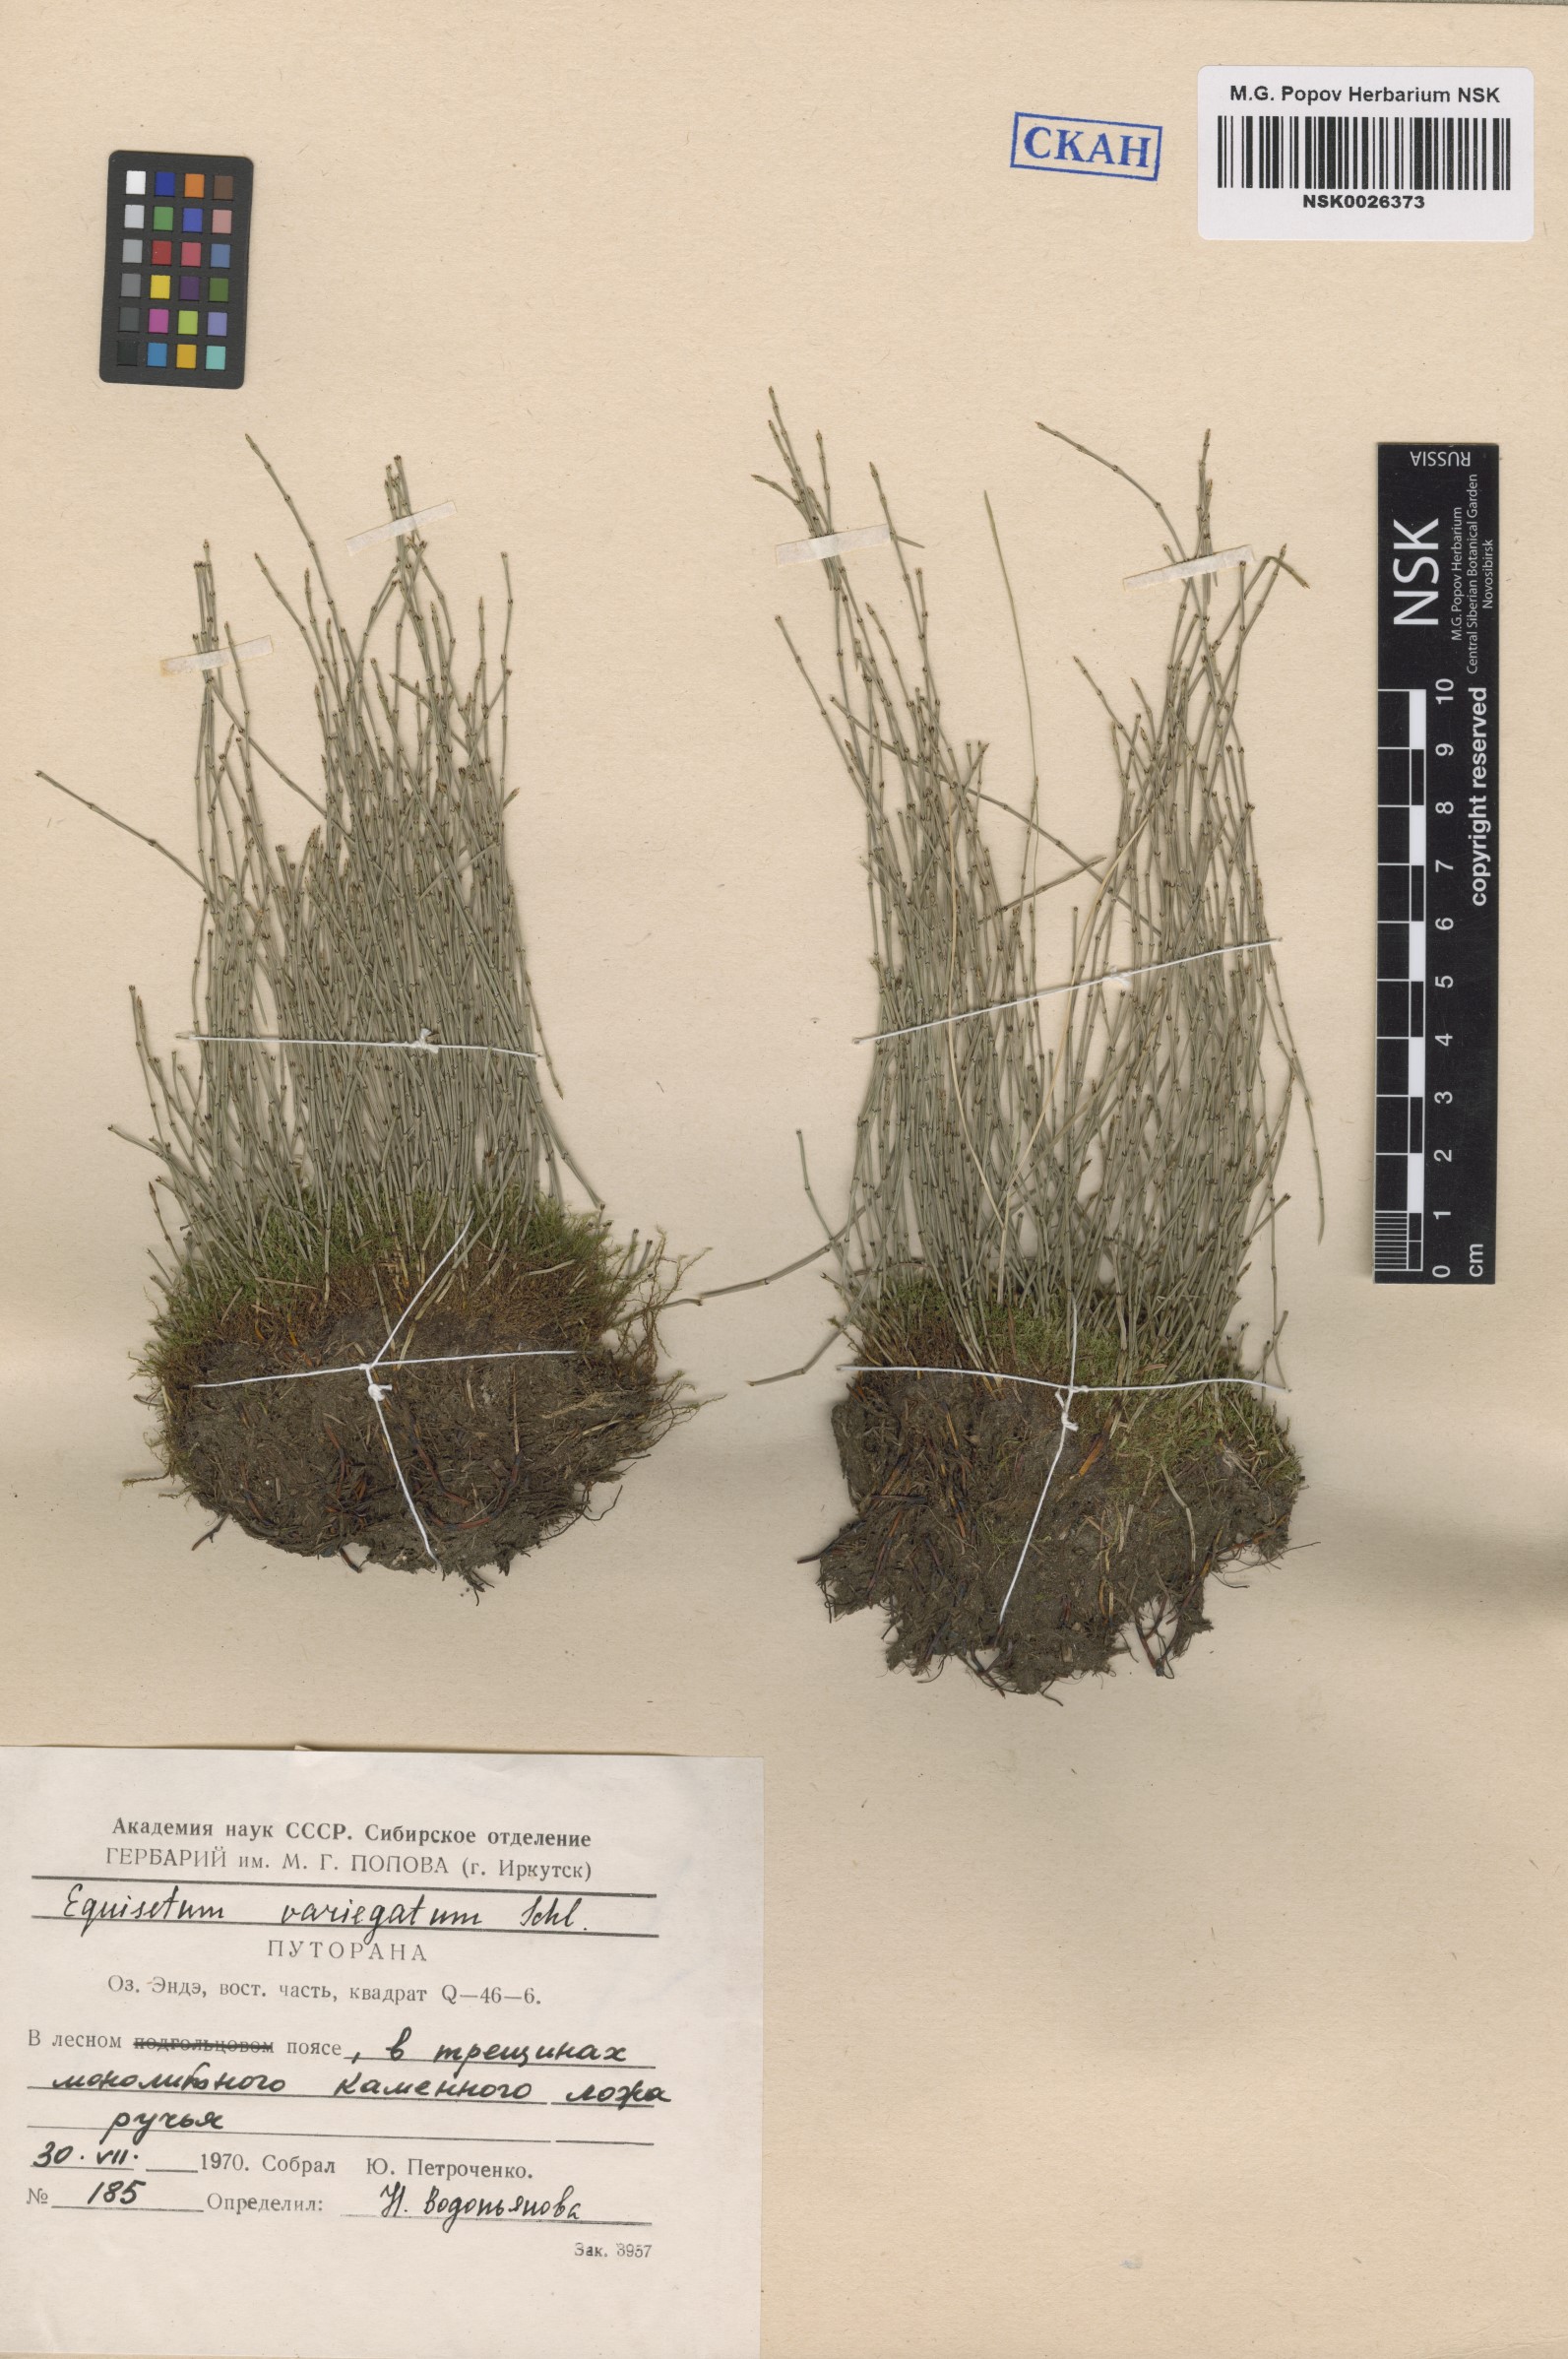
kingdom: Plantae
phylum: Tracheophyta
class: Polypodiopsida
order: Equisetales
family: Equisetaceae
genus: Equisetum
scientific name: Equisetum variegatum
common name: Variegated horsetail
